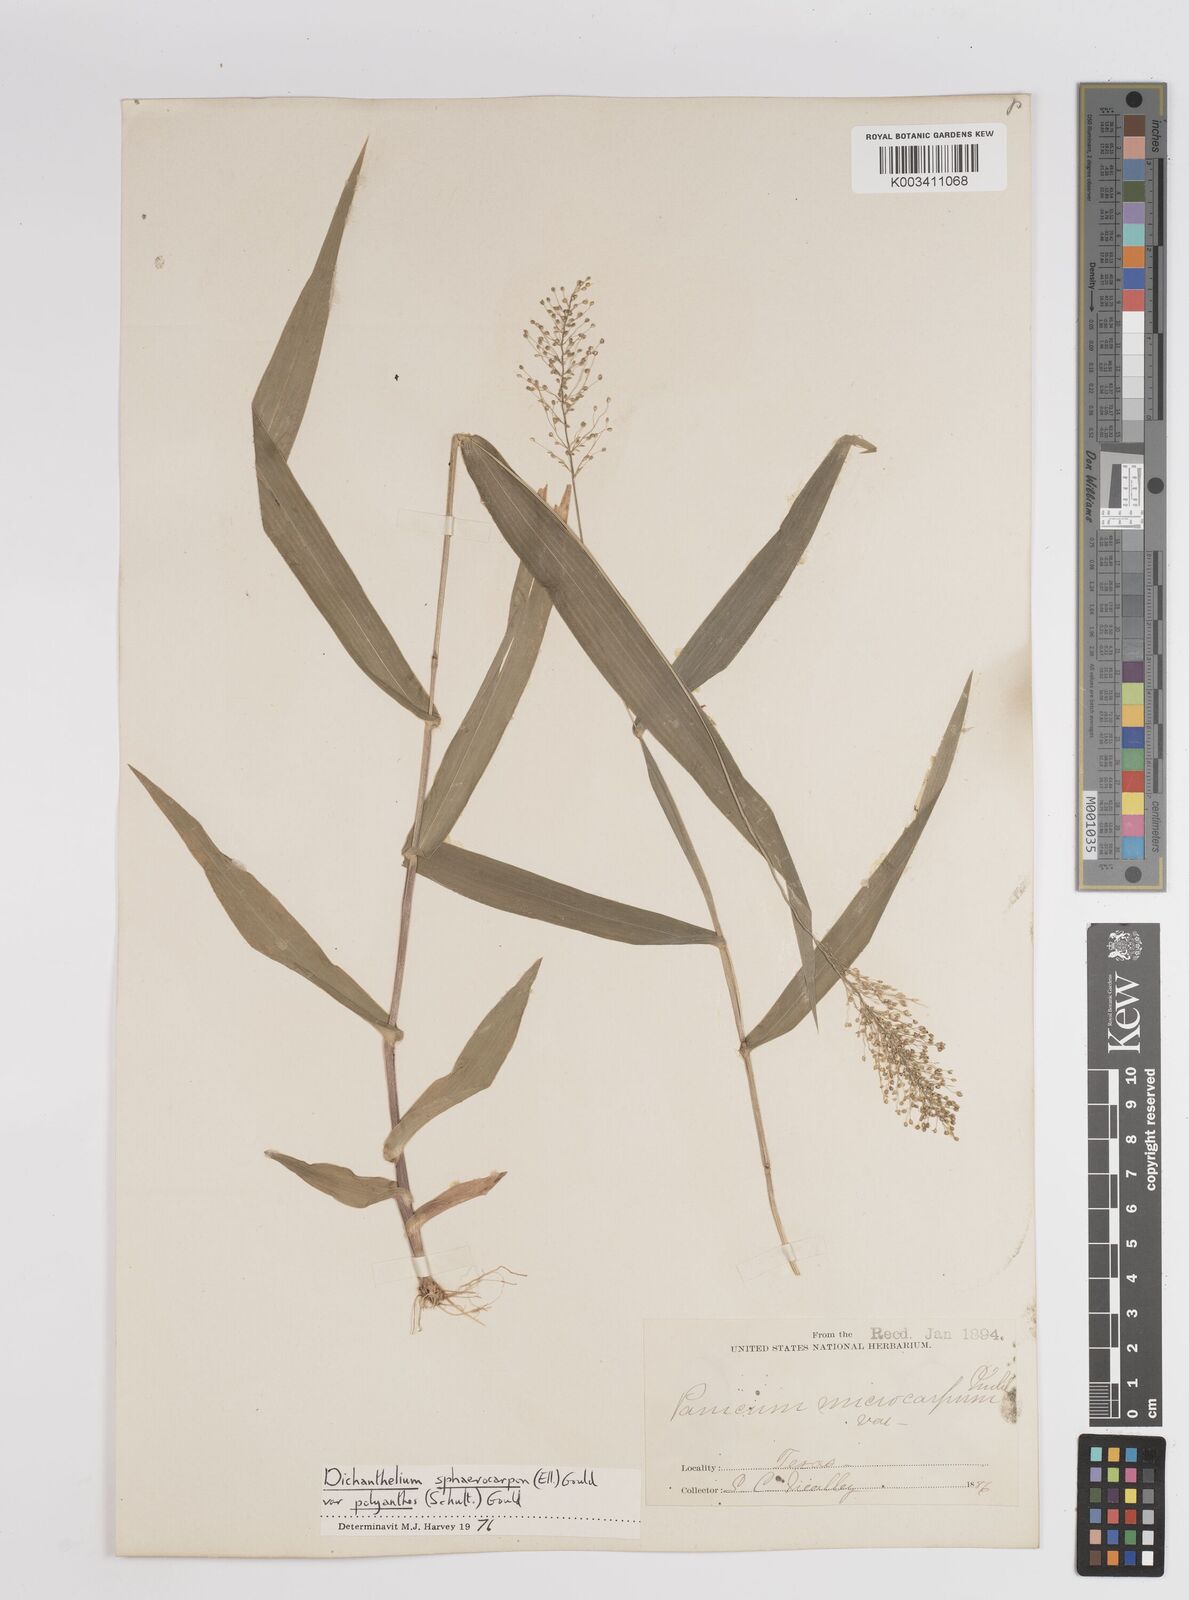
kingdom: Plantae
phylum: Tracheophyta
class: Liliopsida
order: Poales
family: Poaceae
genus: Dichanthelium
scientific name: Dichanthelium polyanthes
